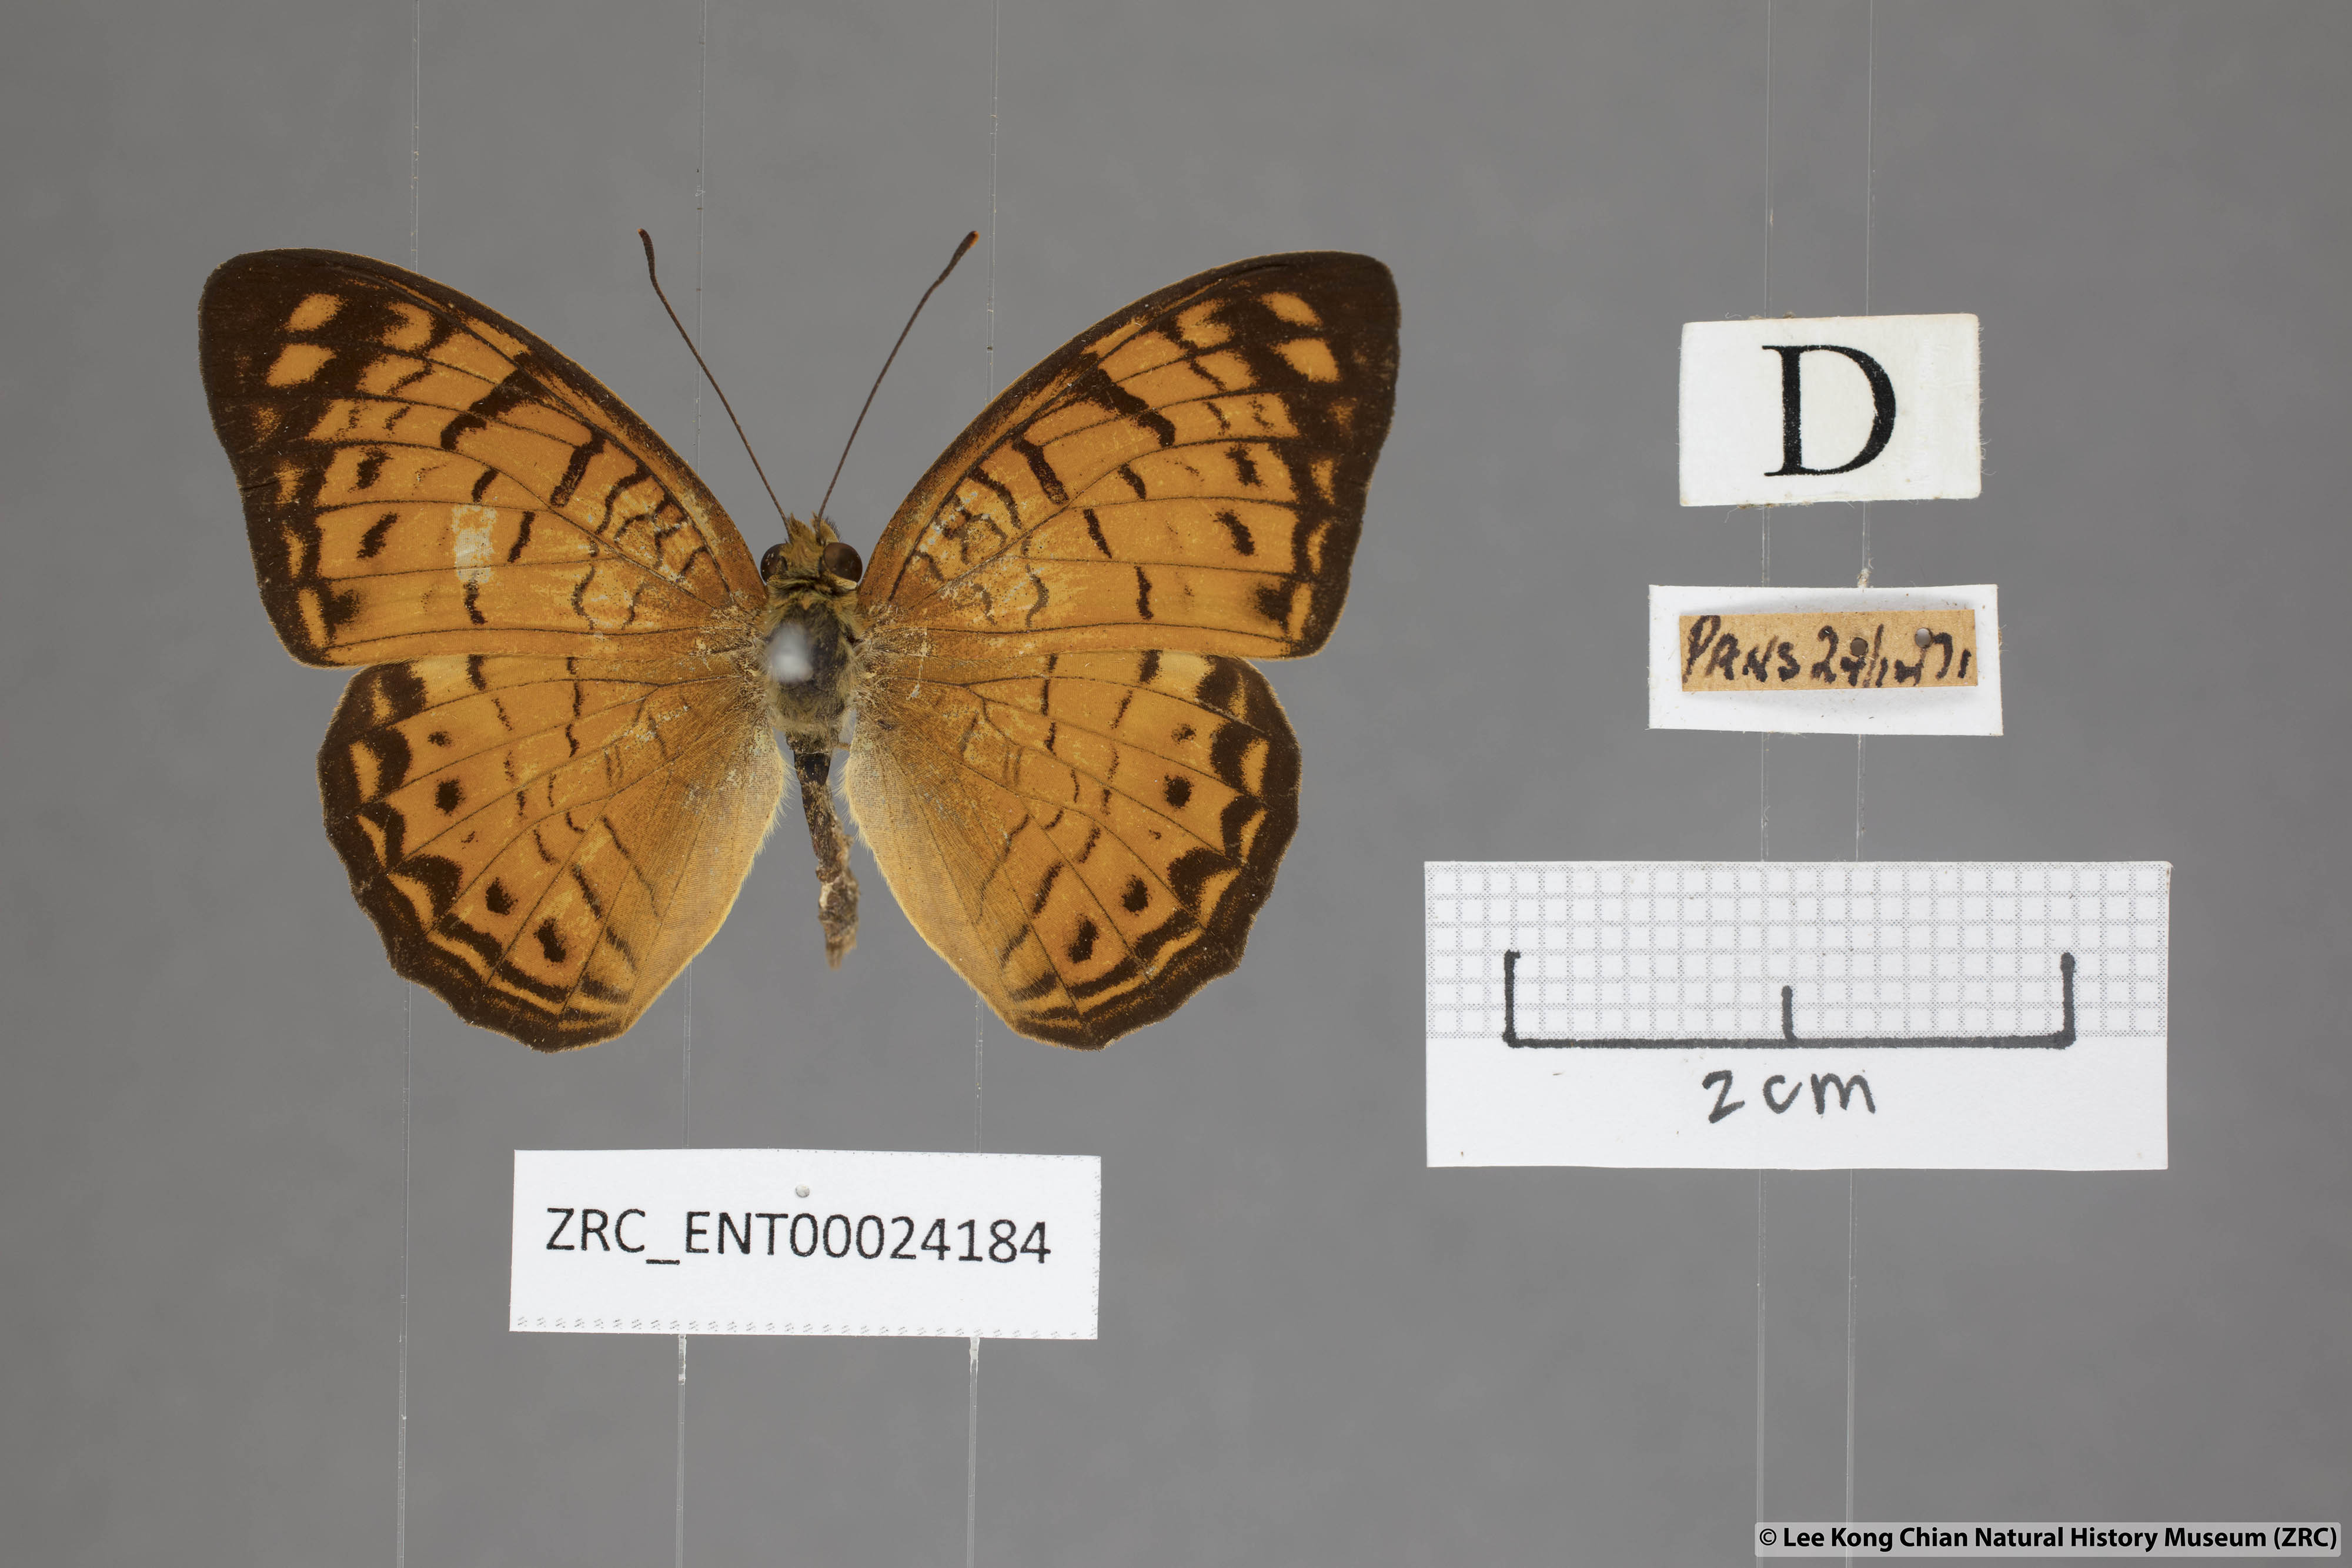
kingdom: Animalia
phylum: Arthropoda
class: Insecta
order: Lepidoptera
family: Nymphalidae
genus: Phalanta
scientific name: Phalanta alcippe
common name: Small leopard
